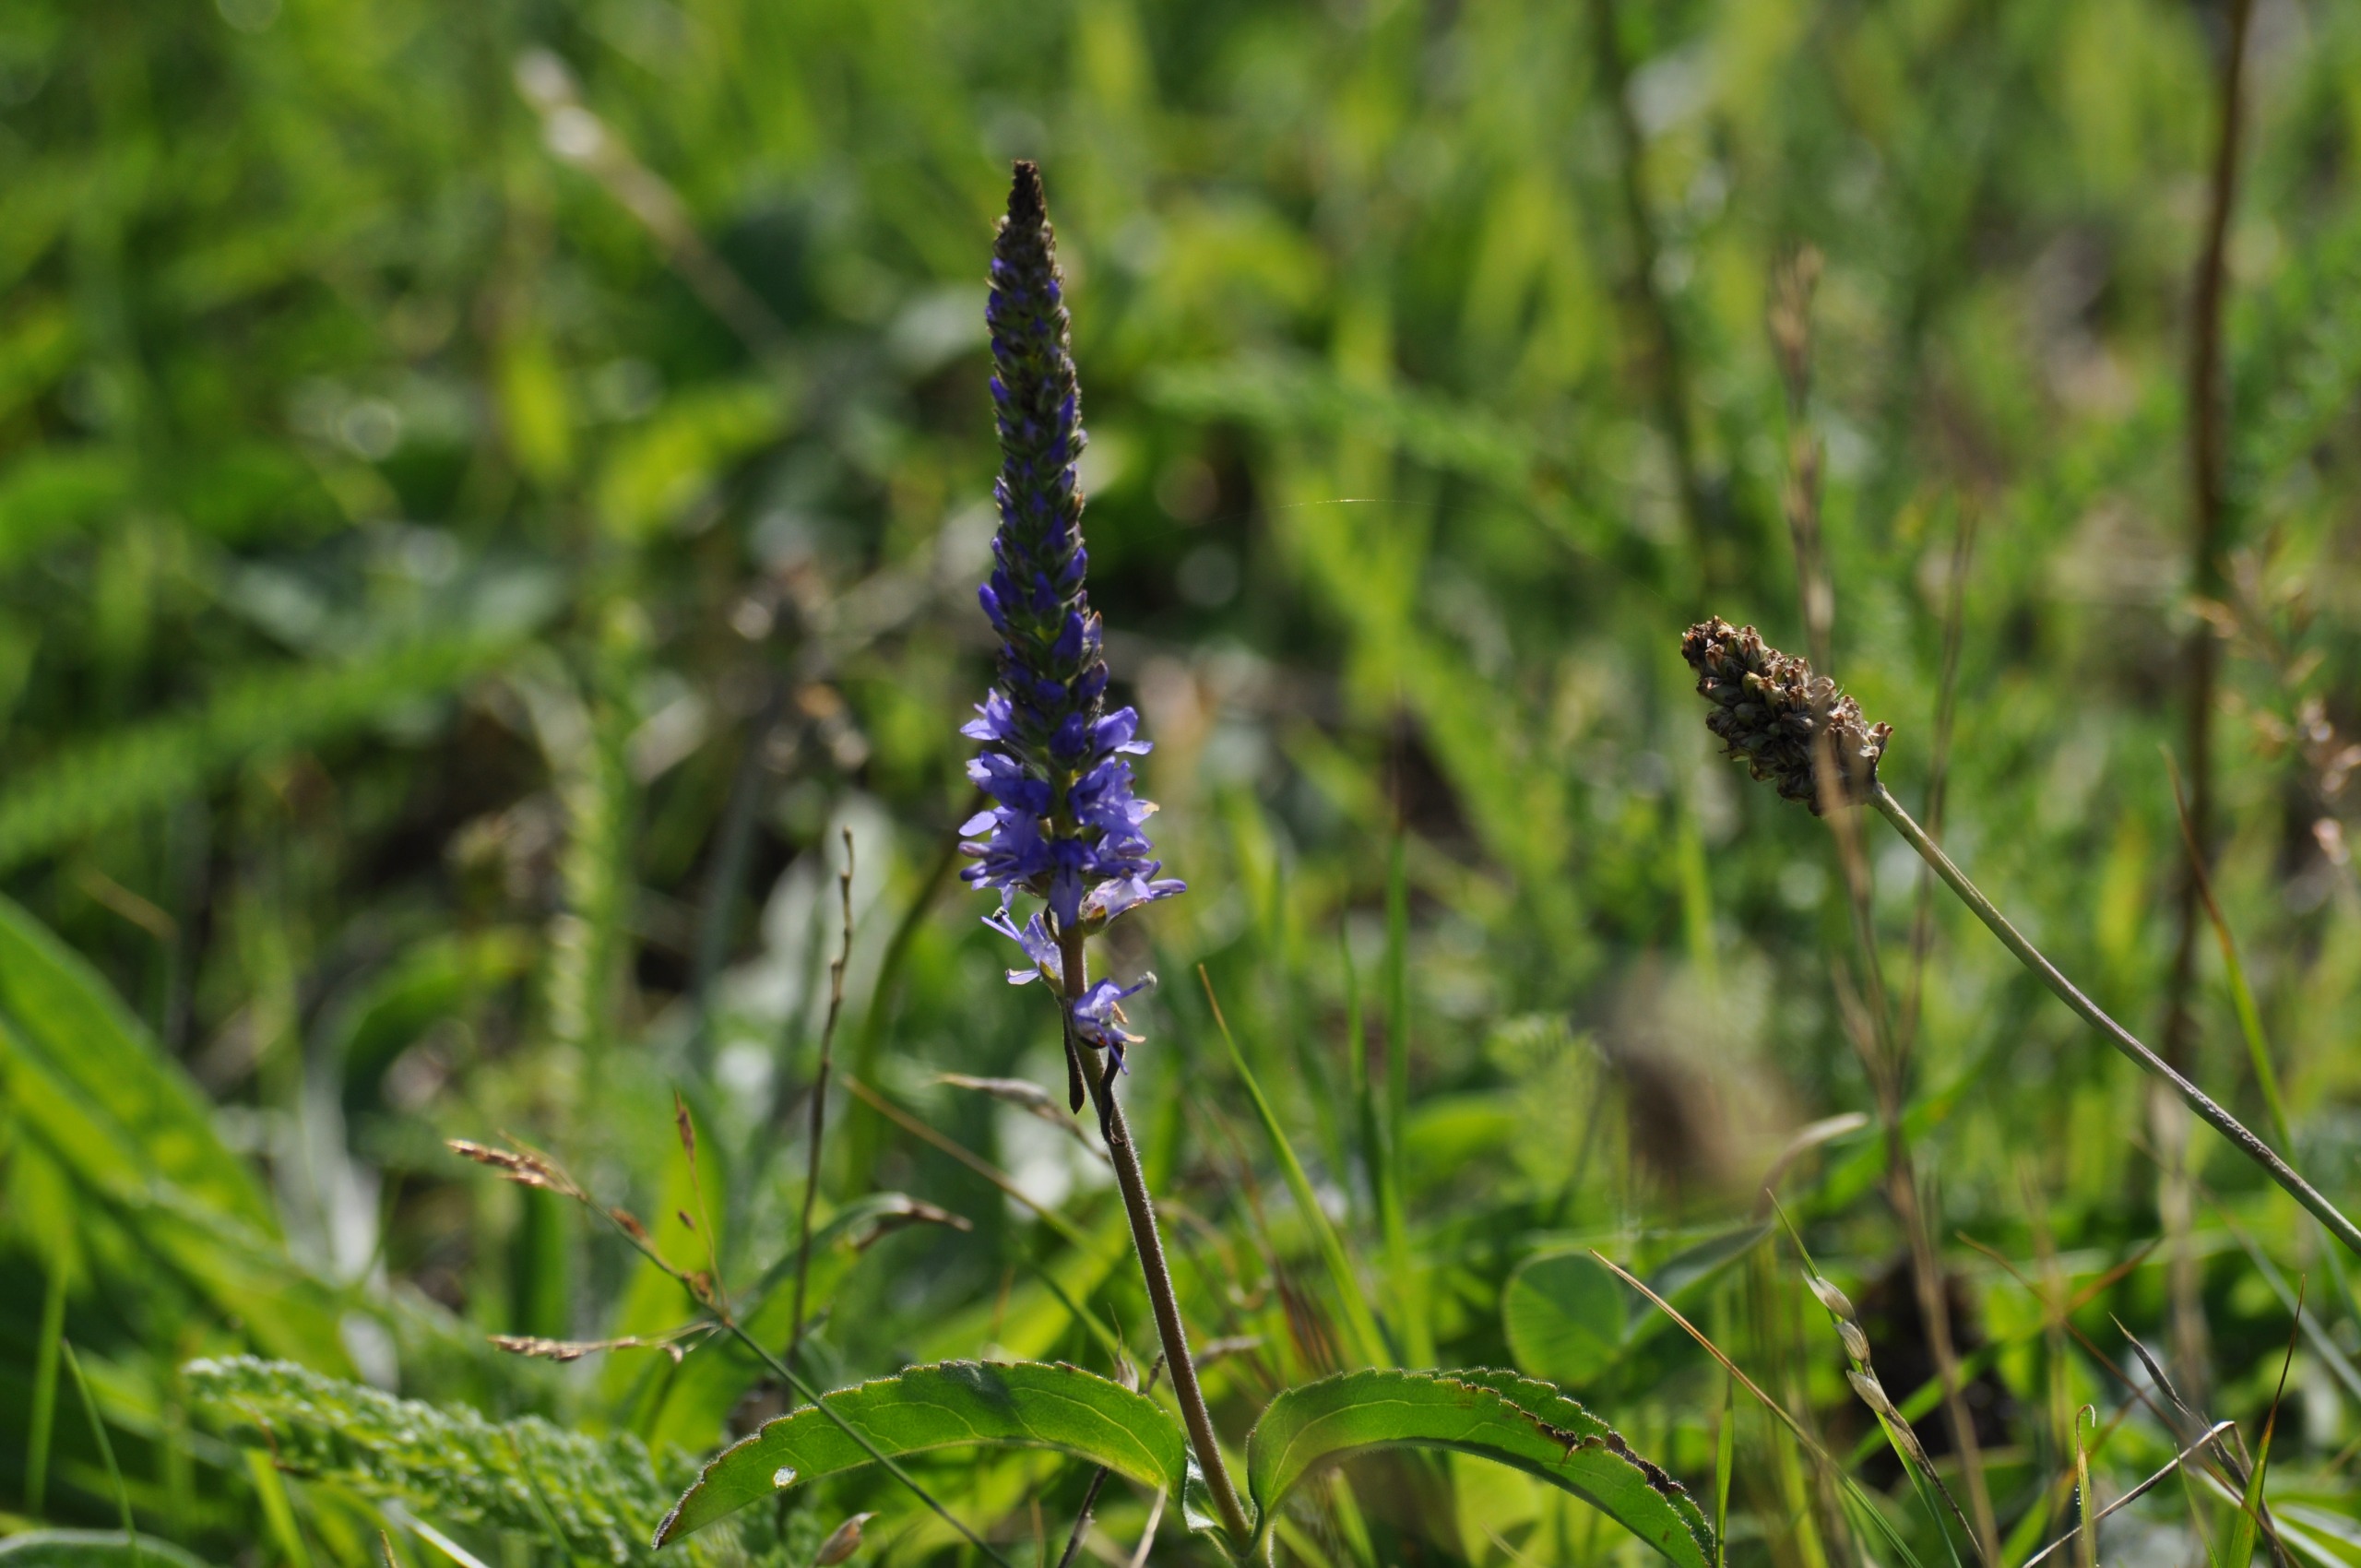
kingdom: Plantae
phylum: Tracheophyta
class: Magnoliopsida
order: Lamiales
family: Plantaginaceae
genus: Veronica
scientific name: Veronica spicata
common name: Aks-ærenpris
